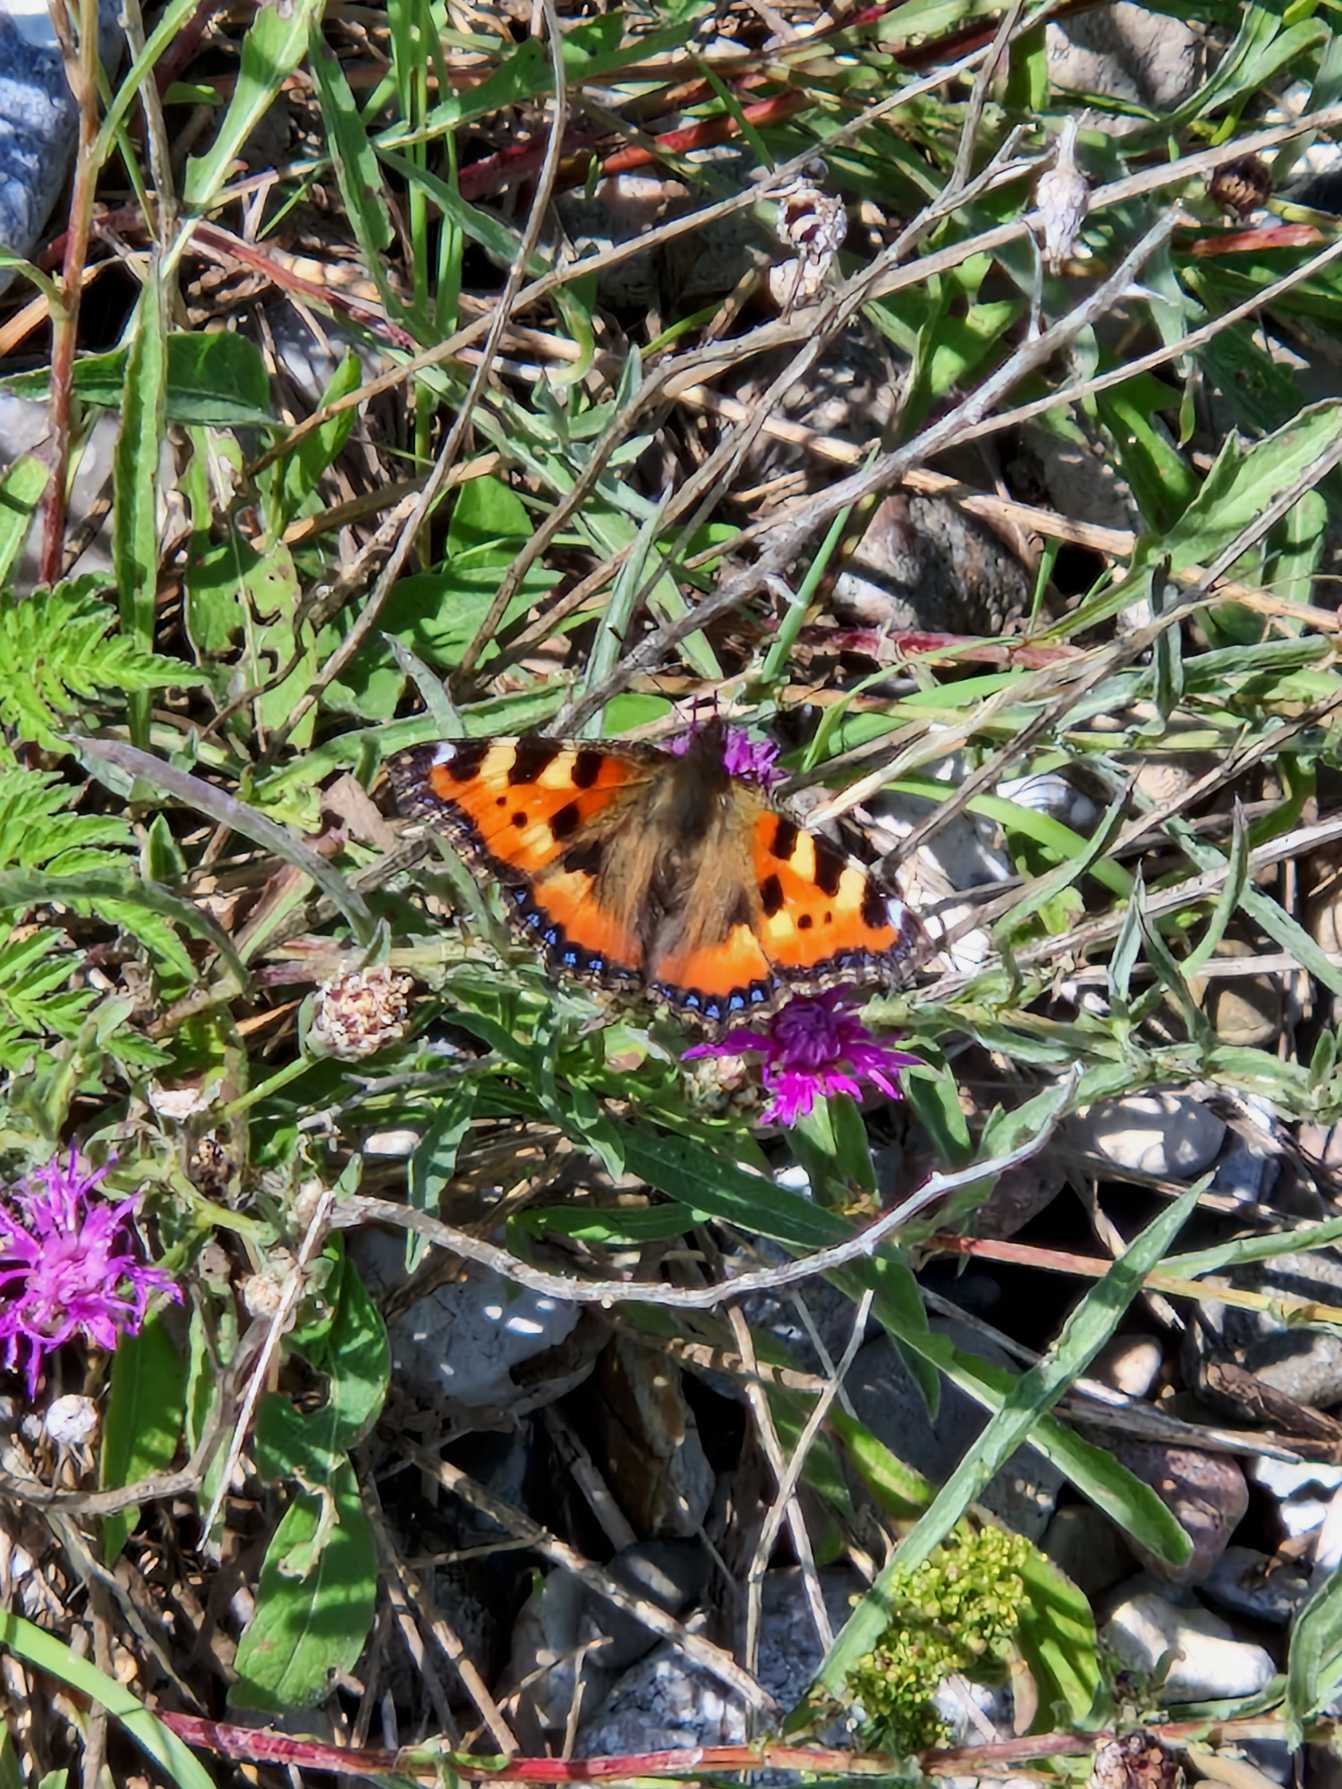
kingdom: Animalia
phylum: Arthropoda
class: Insecta
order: Lepidoptera
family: Nymphalidae
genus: Aglais
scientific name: Aglais urticae
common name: Nældens takvinge
